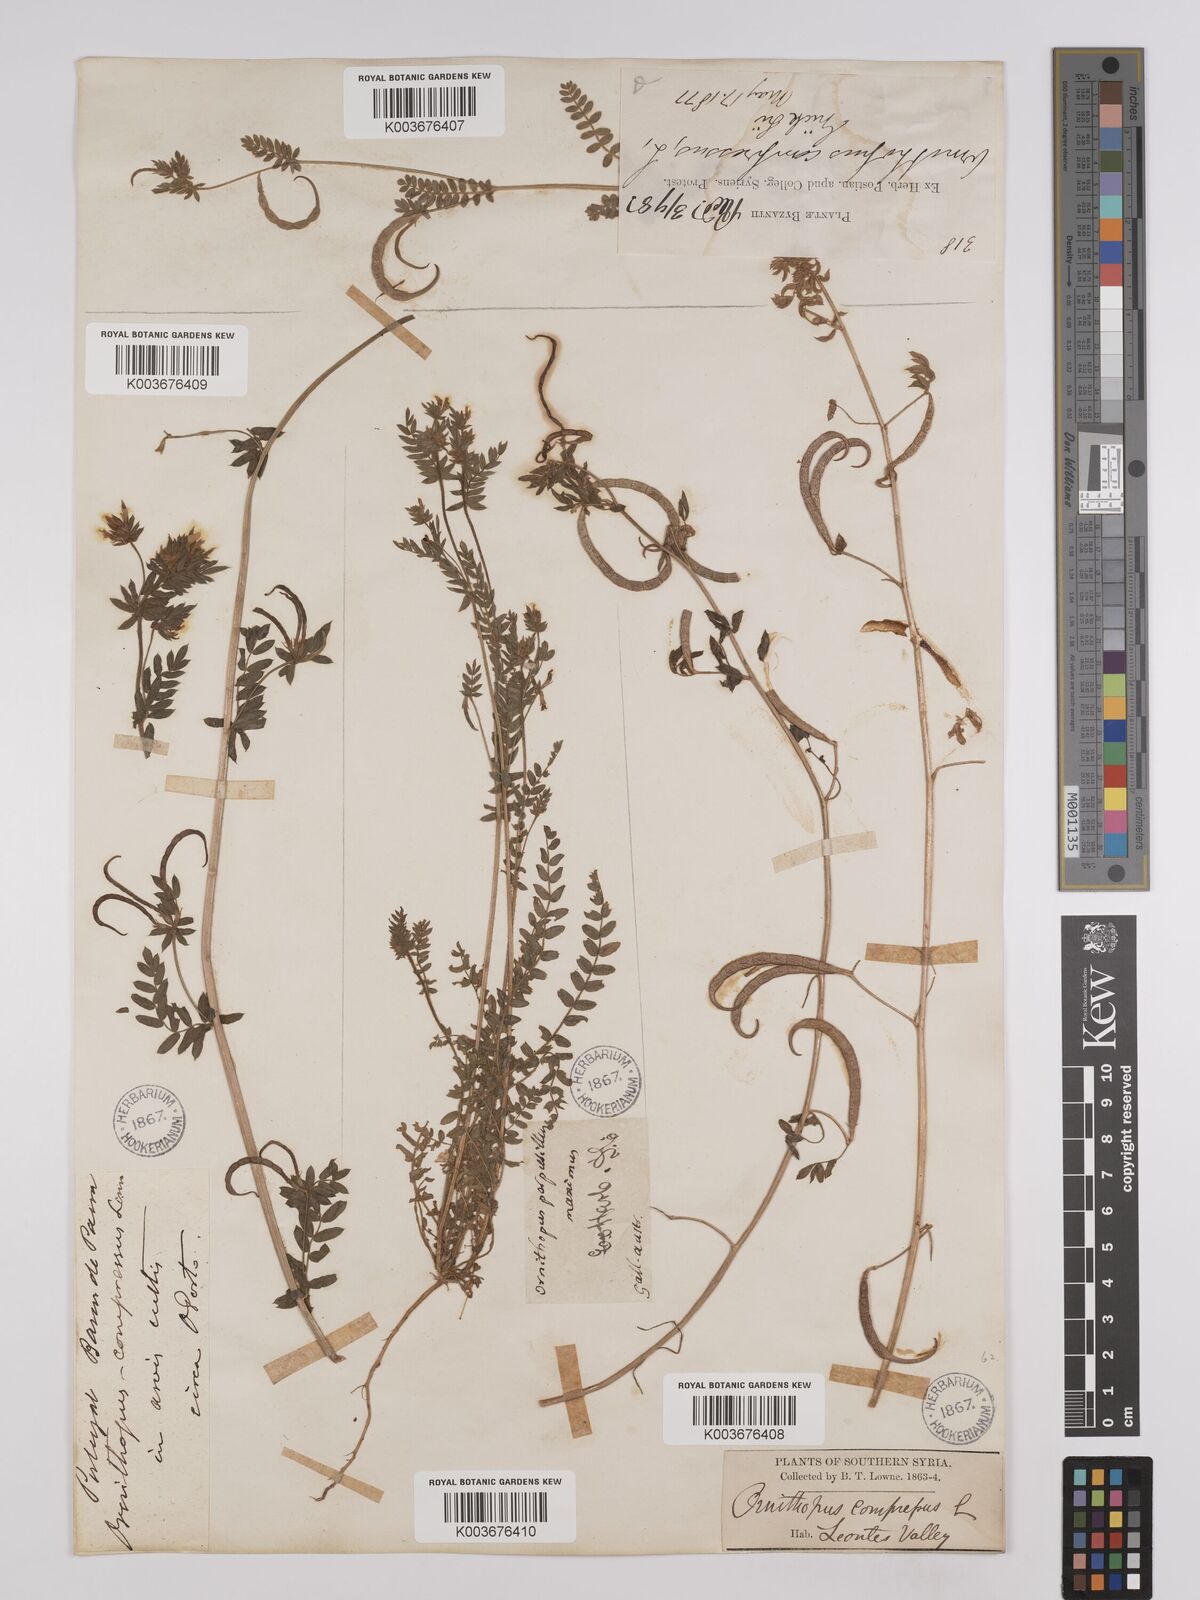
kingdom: Plantae
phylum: Tracheophyta
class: Magnoliopsida
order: Fabales
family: Fabaceae
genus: Ornithopus
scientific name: Ornithopus compressus
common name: Yellow serradella
